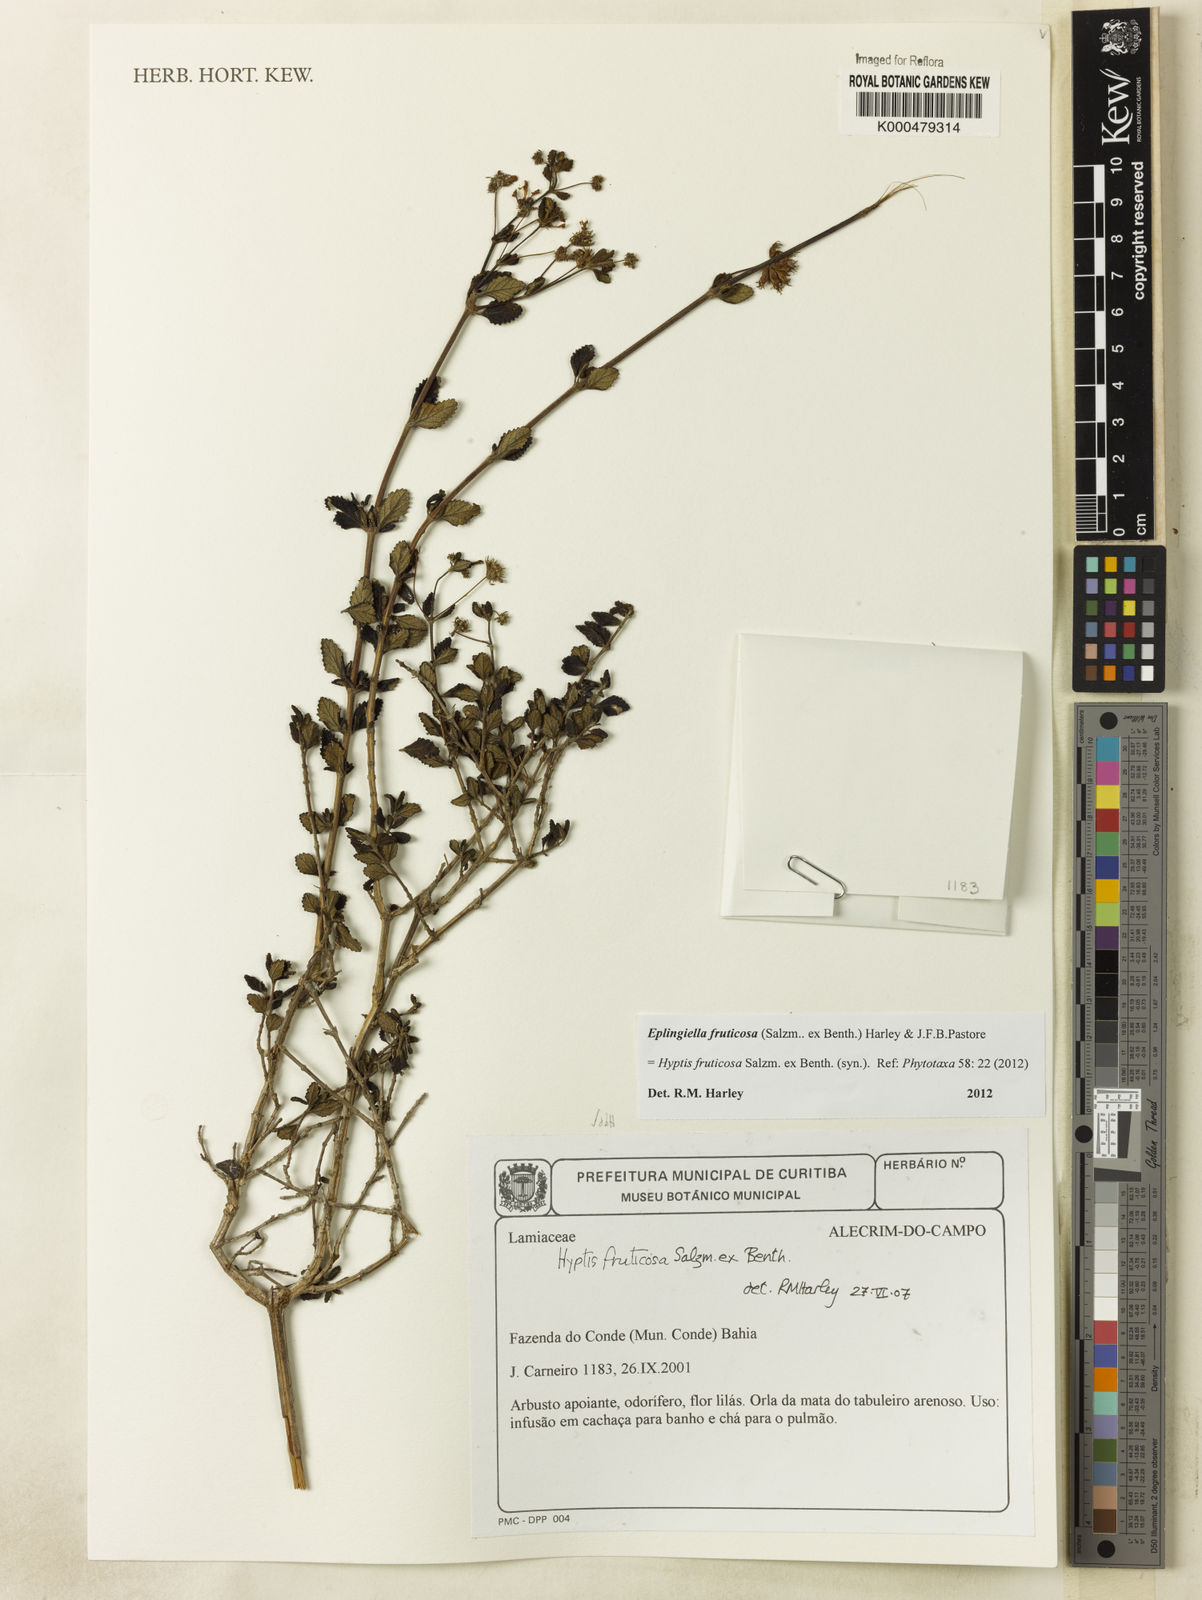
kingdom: Plantae
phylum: Tracheophyta
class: Magnoliopsida
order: Lamiales
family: Lamiaceae
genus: Eplingiella
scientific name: Eplingiella fruticosa
